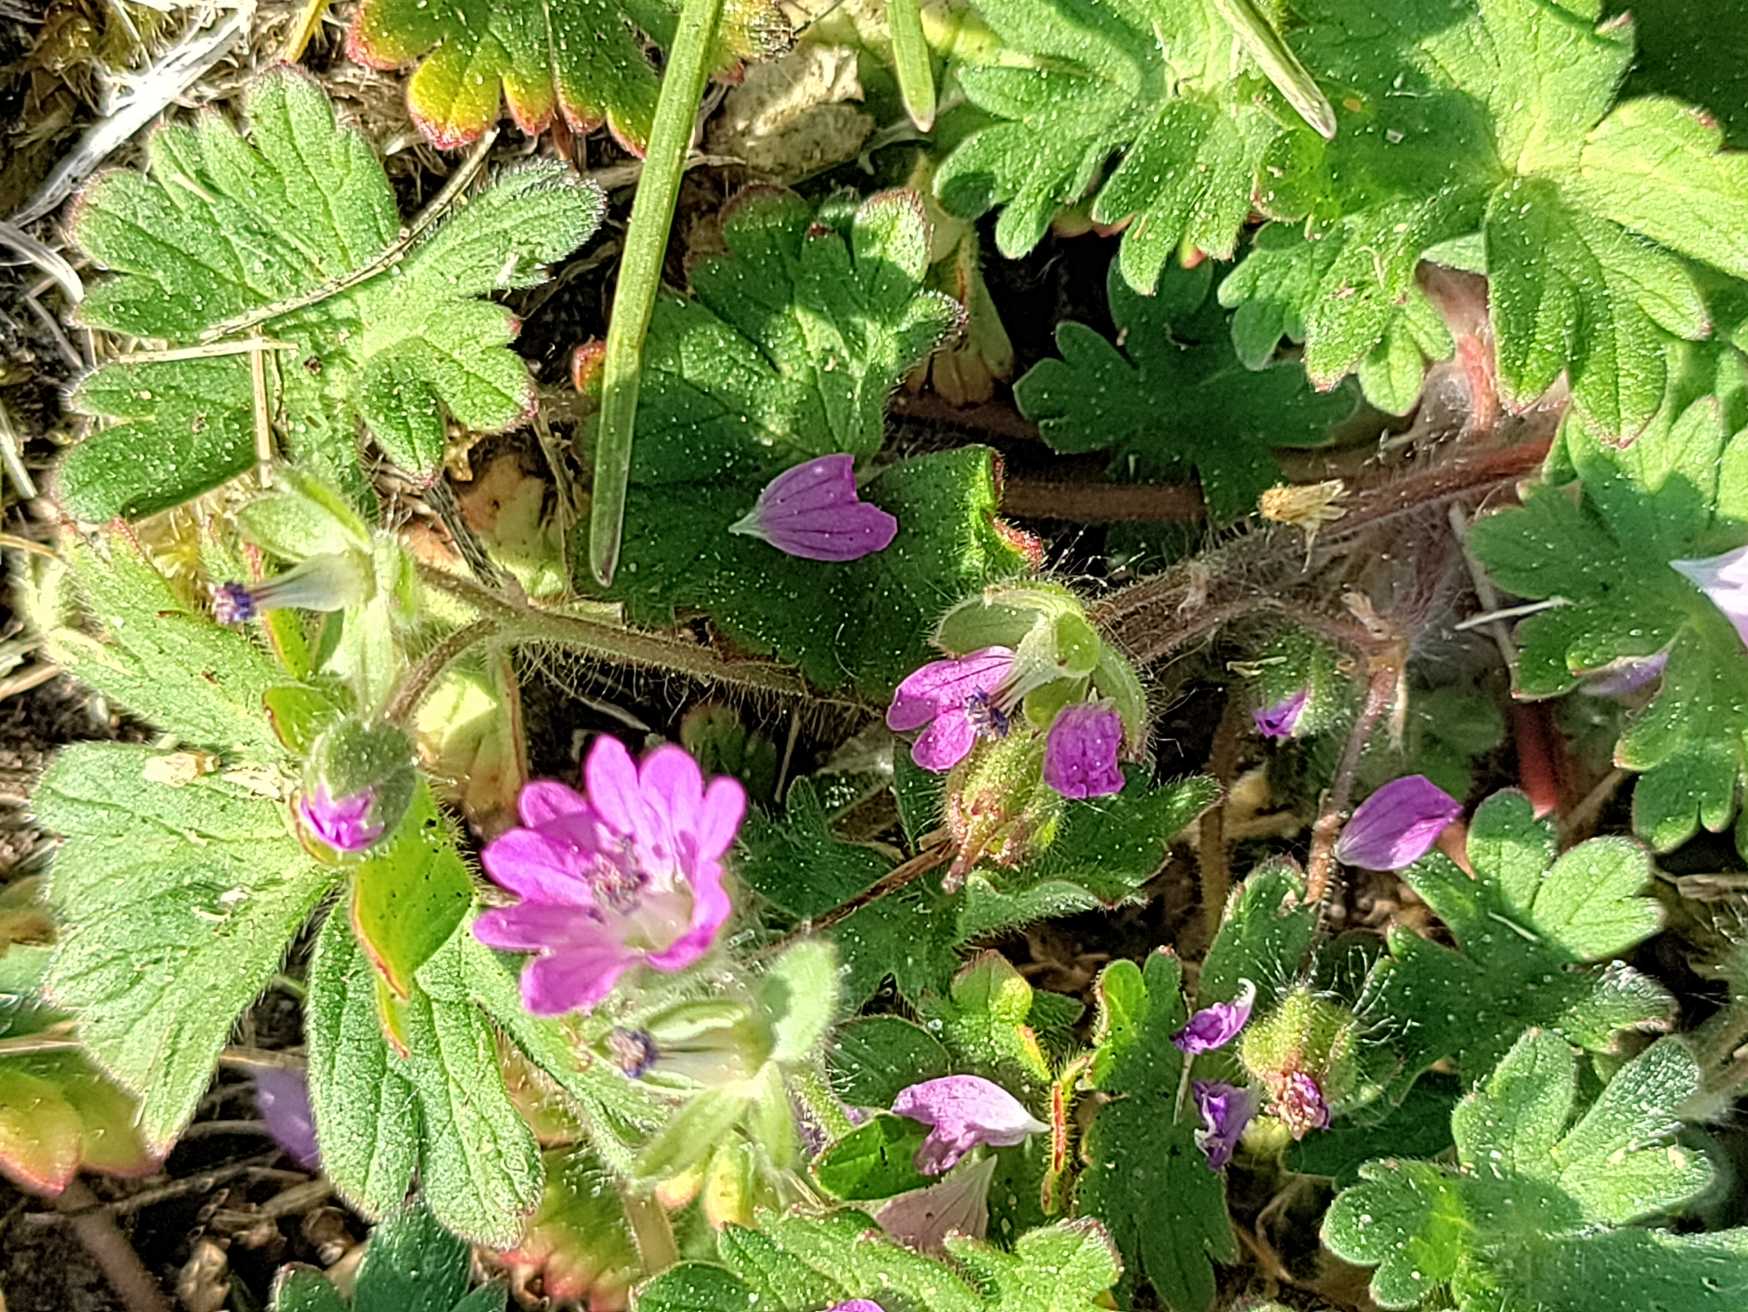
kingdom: Plantae
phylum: Tracheophyta
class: Magnoliopsida
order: Geraniales
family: Geraniaceae
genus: Geranium
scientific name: Geranium molle
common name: Blød storkenæb
